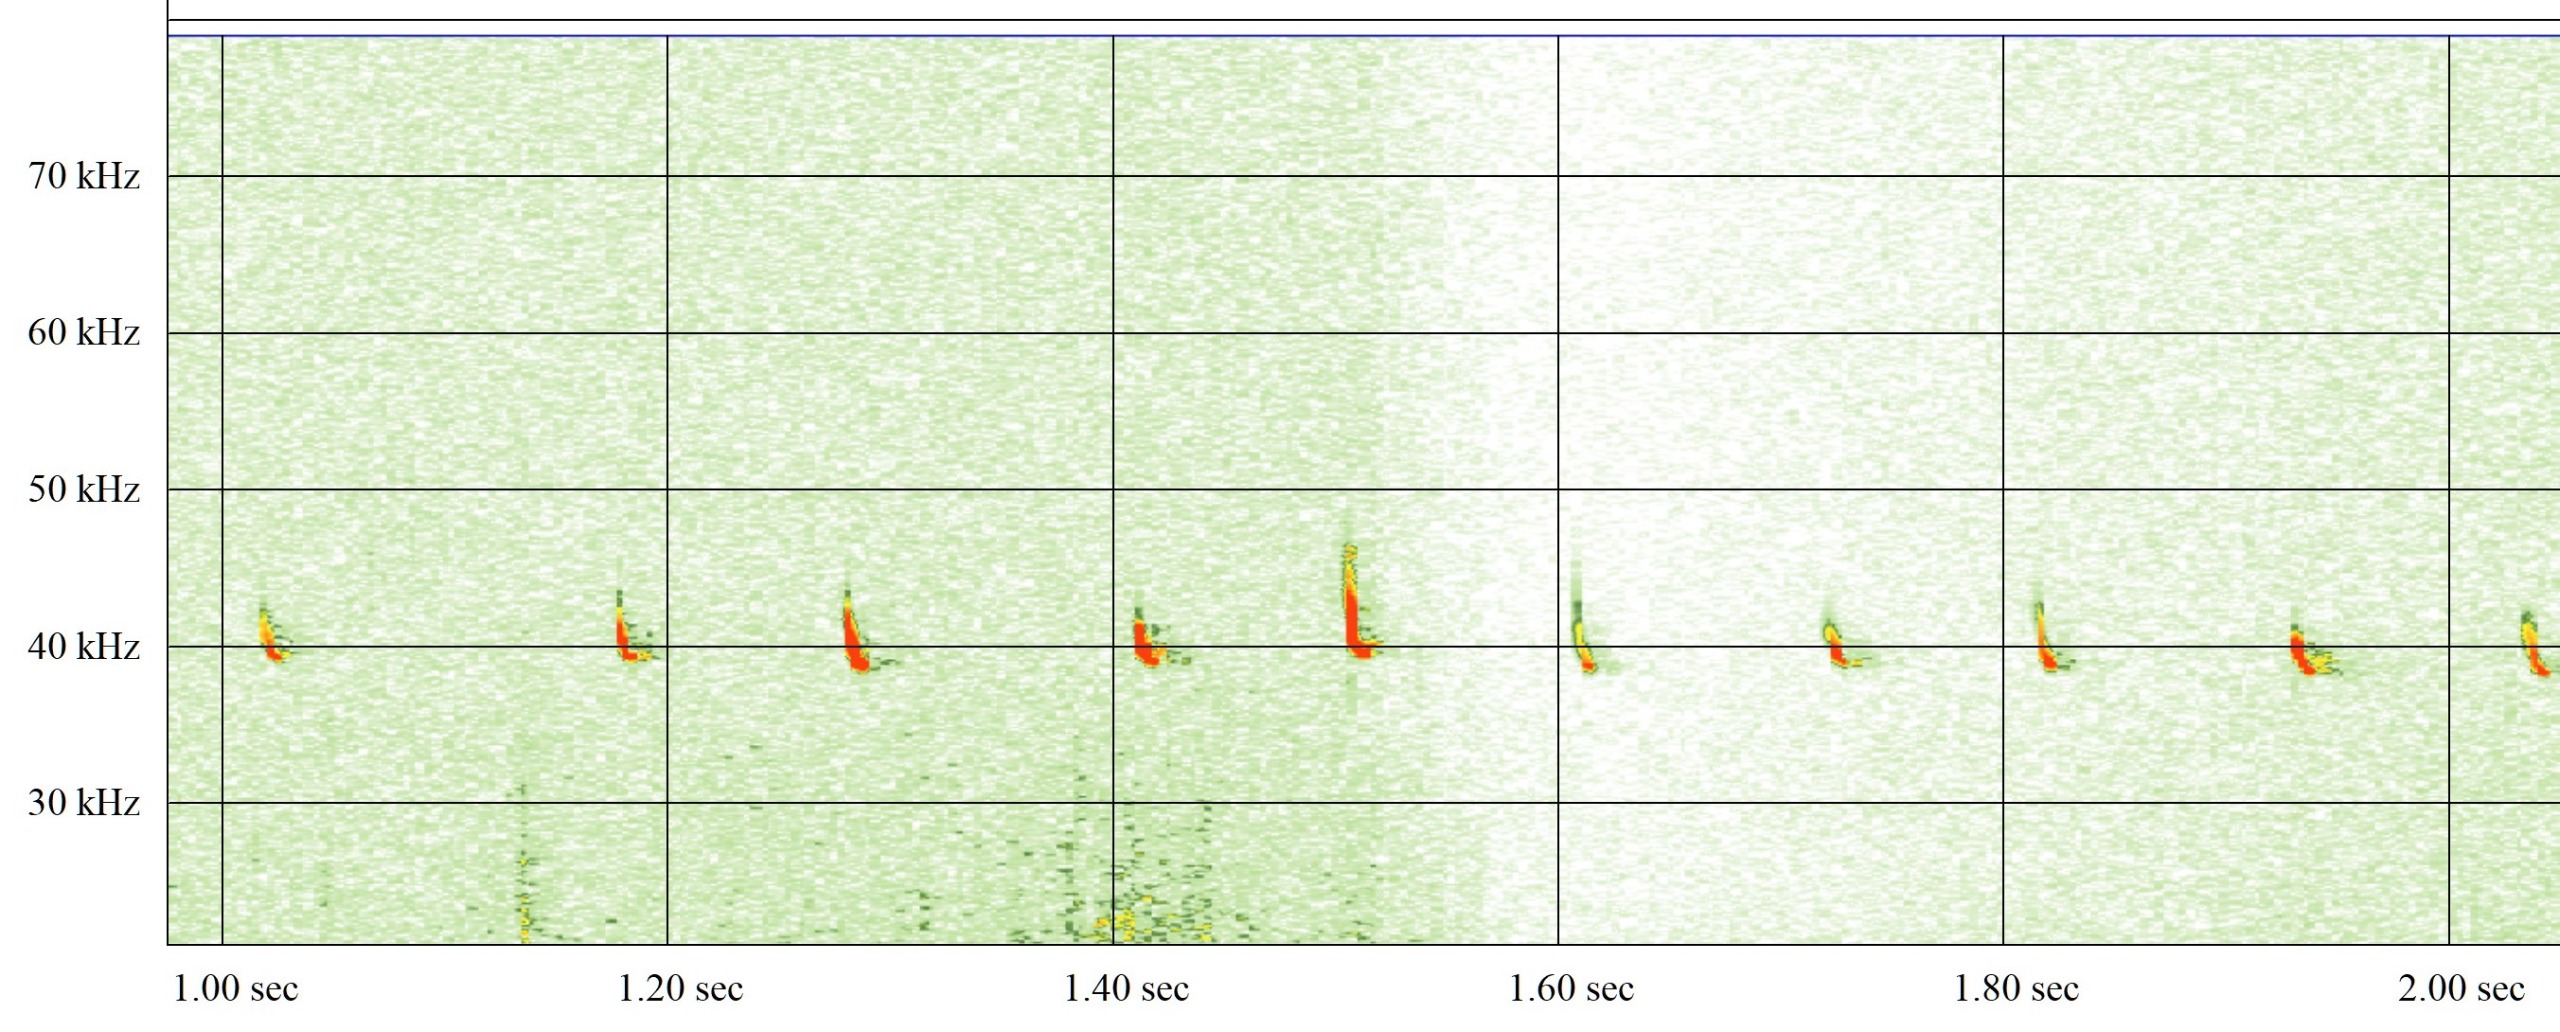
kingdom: Animalia
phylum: Chordata
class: Mammalia
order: Chiroptera
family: Vespertilionidae
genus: Pipistrellus
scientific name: Pipistrellus nathusii
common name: Troldflagermus
